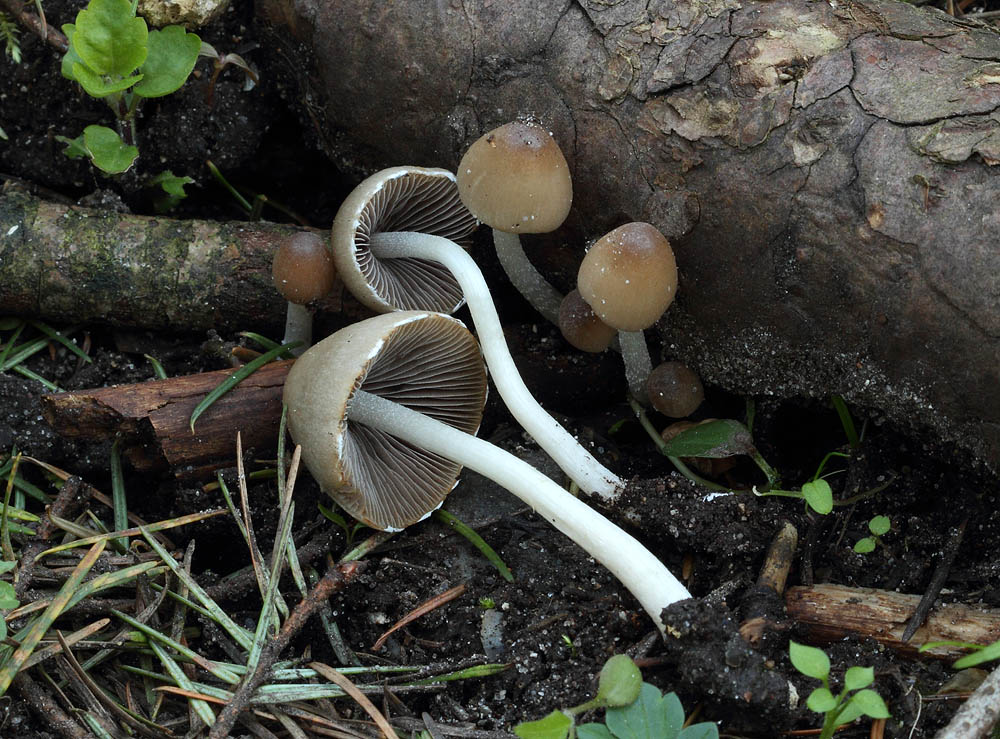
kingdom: Fungi
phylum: Basidiomycota
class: Agaricomycetes
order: Agaricales
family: Psathyrellaceae
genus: Coprinopsis
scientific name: Coprinopsis marcescibilis
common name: ruderat-blækhat
